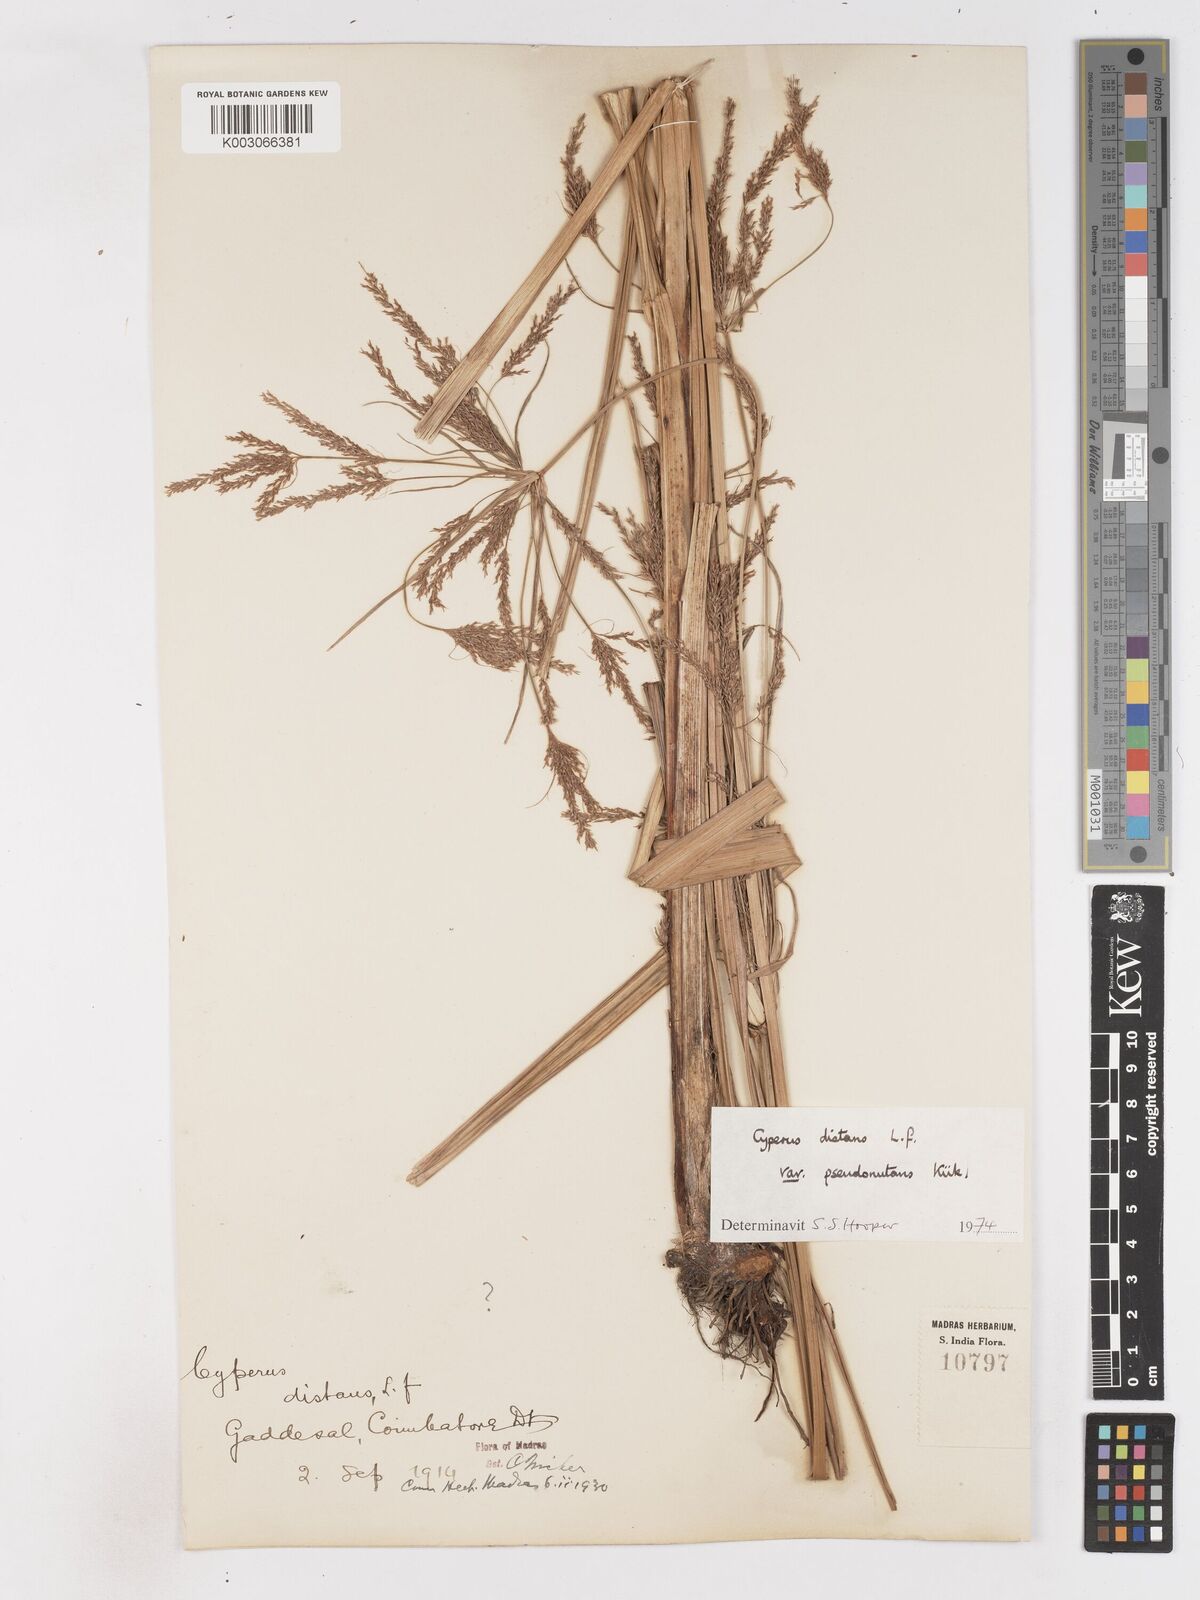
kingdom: Plantae
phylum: Tracheophyta
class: Liliopsida
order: Poales
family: Cyperaceae
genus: Cyperus
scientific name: Cyperus distans
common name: Slender cyperus
